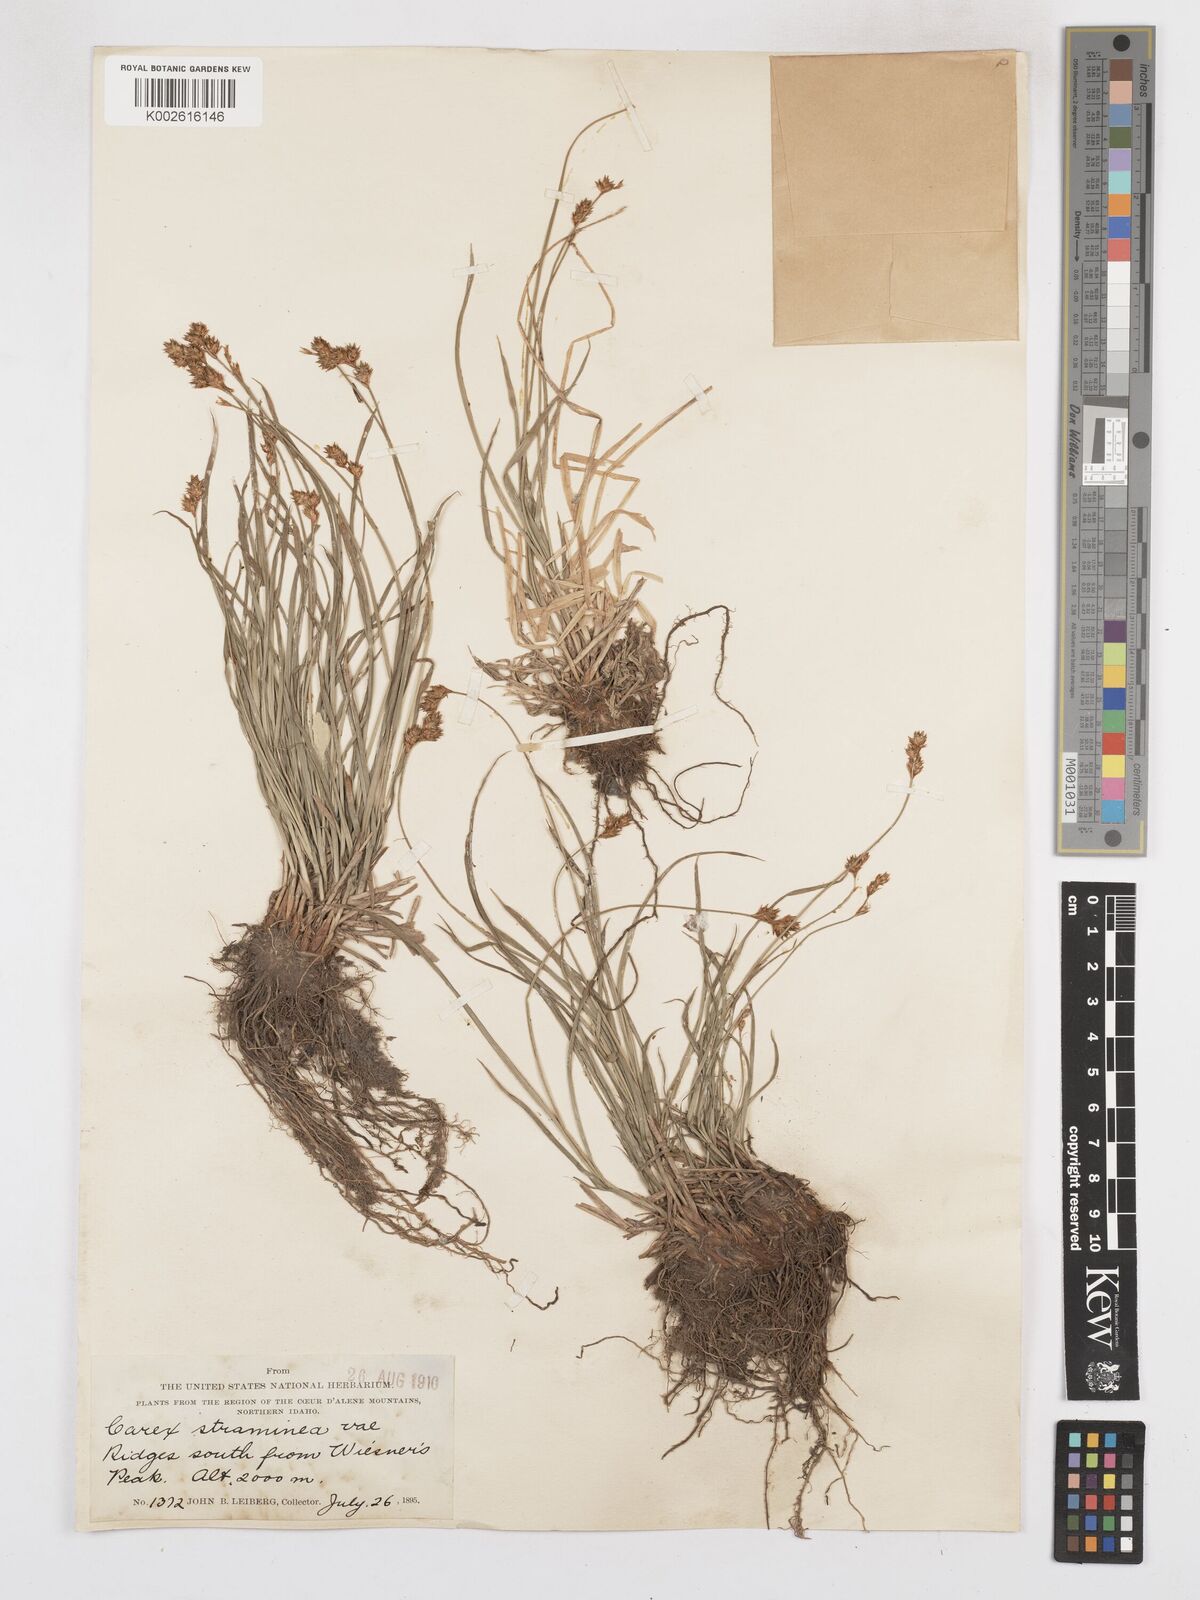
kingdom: Plantae
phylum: Tracheophyta
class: Liliopsida
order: Poales
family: Cyperaceae
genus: Carex
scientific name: Carex brevior
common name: Brevior sedge
